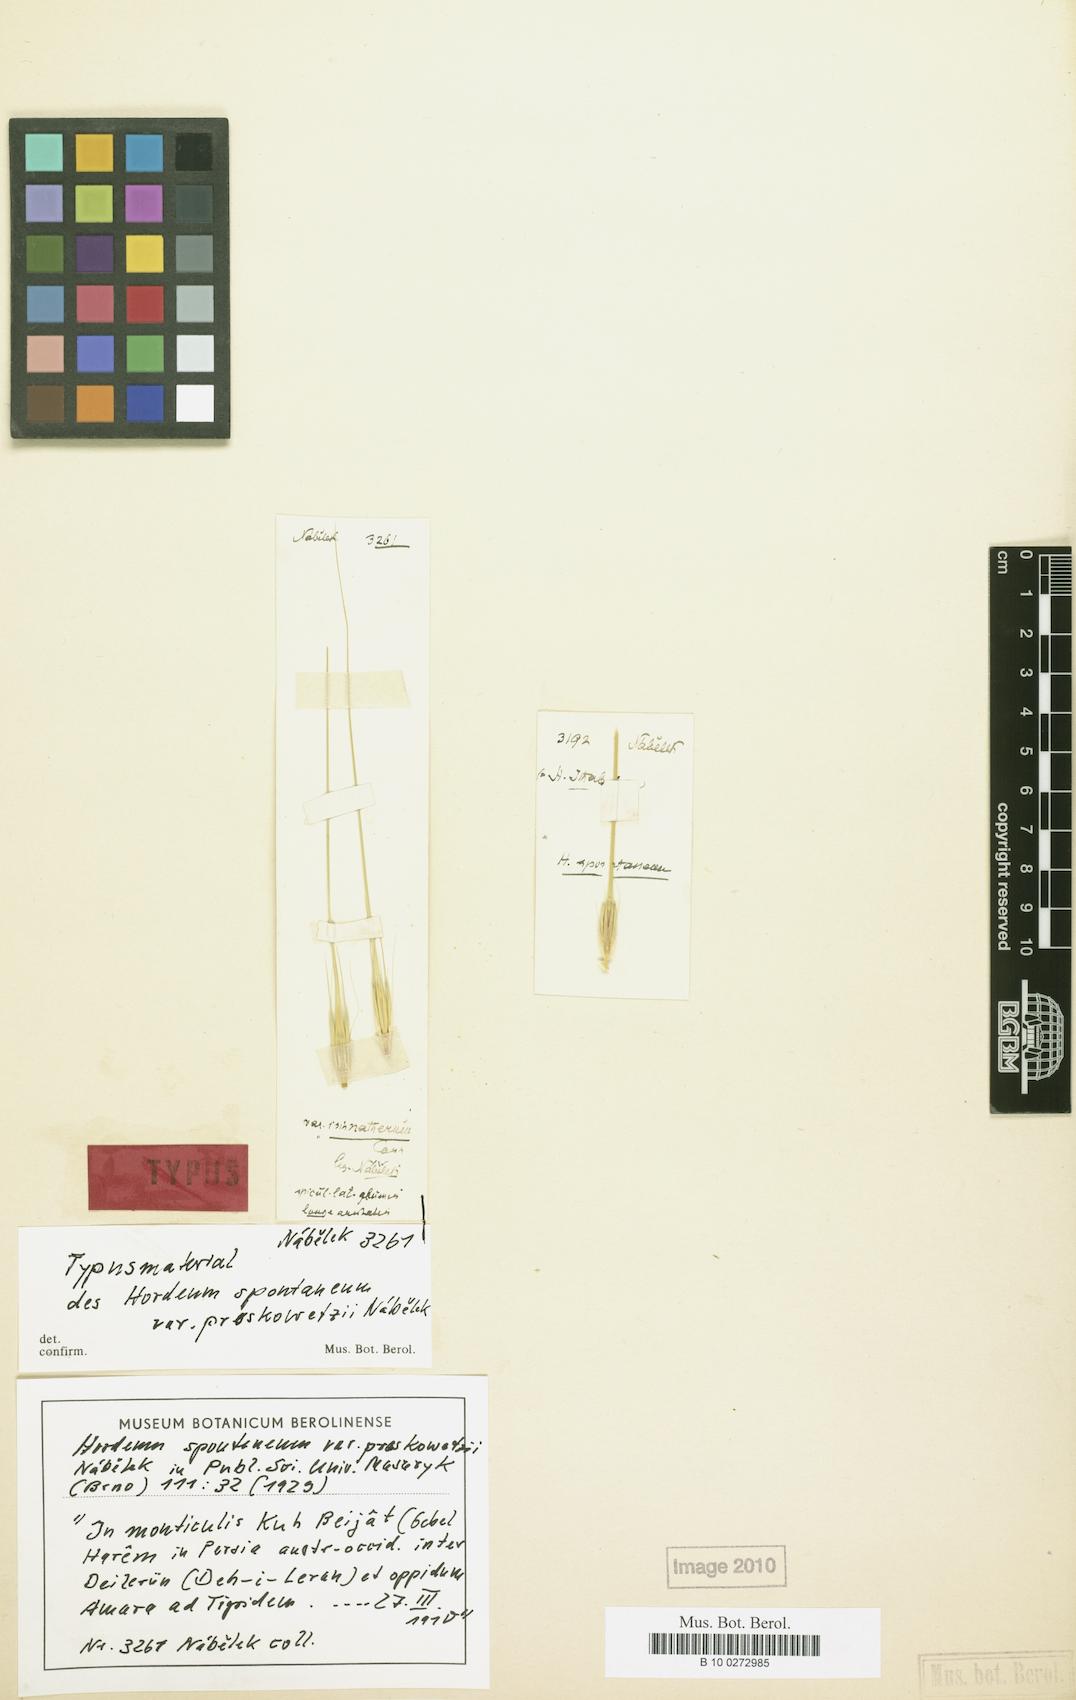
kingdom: Plantae
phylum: Tracheophyta
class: Liliopsida
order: Poales
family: Poaceae
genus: Hordeum
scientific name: Hordeum spontaneum
